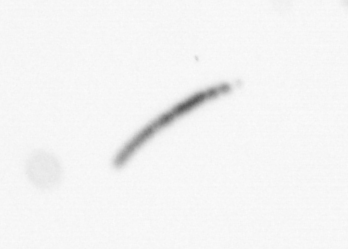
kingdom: Chromista
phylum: Ochrophyta
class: Bacillariophyceae
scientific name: Bacillariophyceae
